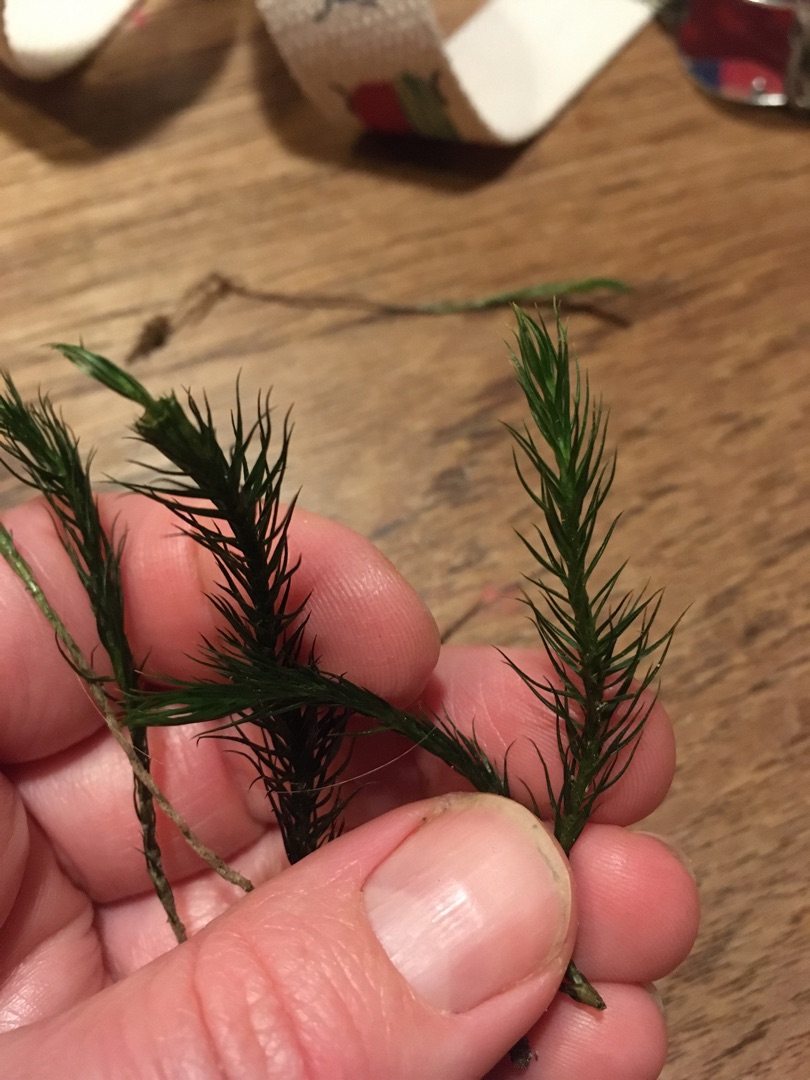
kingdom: Plantae
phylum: Bryophyta
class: Polytrichopsida
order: Polytrichales
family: Polytrichaceae
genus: Polytrichum
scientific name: Polytrichum formosum
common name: Skov-jomfruhår
